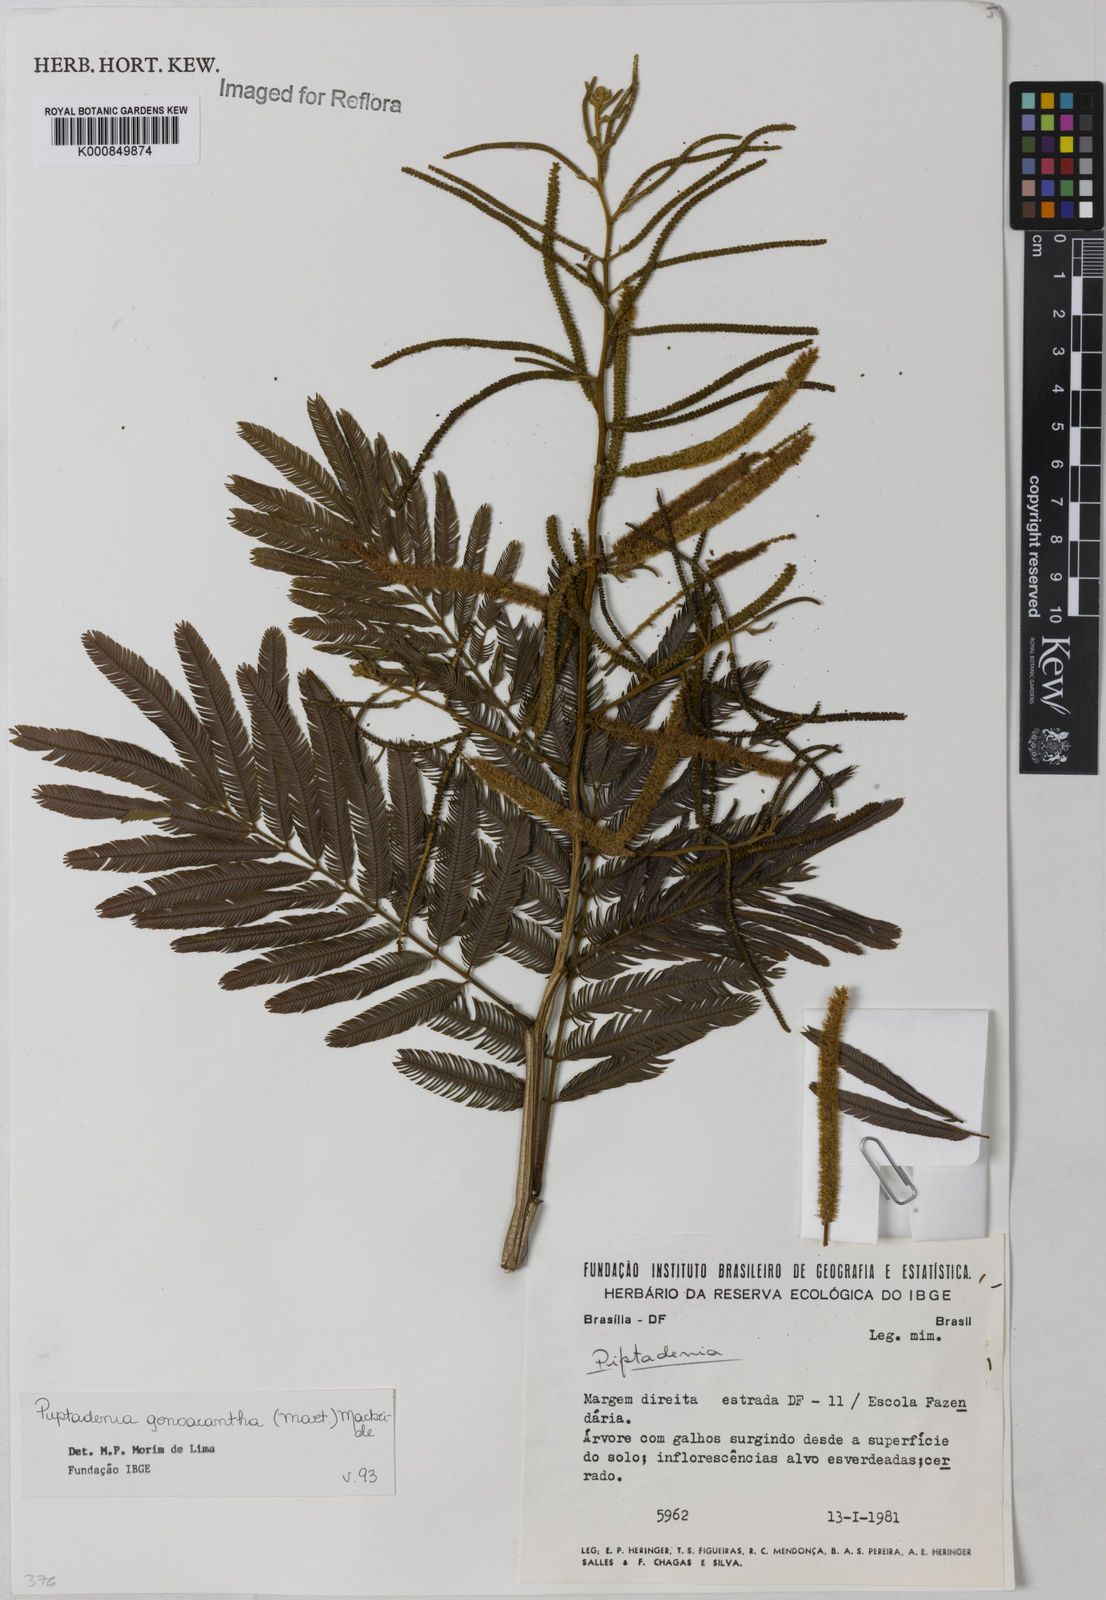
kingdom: Plantae
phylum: Tracheophyta
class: Magnoliopsida
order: Fabales
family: Fabaceae
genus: Piptadenia
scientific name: Piptadenia gonoacantha
